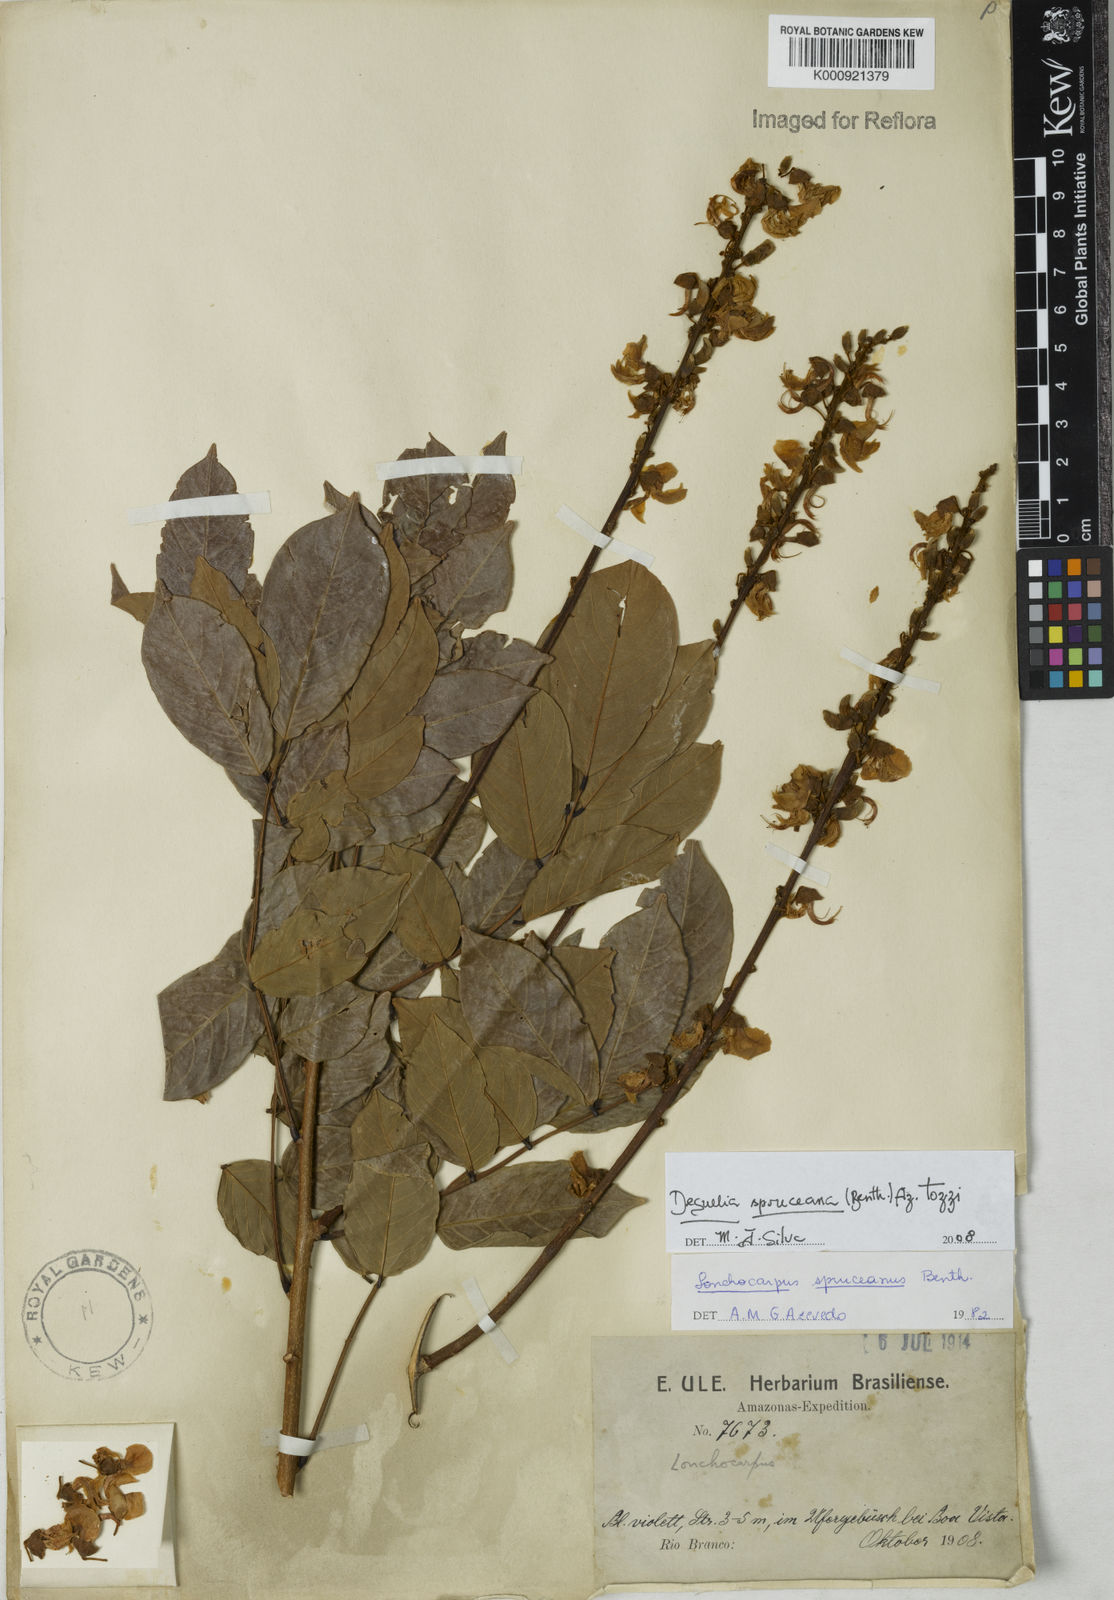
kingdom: Plantae
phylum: Tracheophyta
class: Magnoliopsida
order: Fabales
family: Fabaceae
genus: Deguelia
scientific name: Deguelia spruceana
